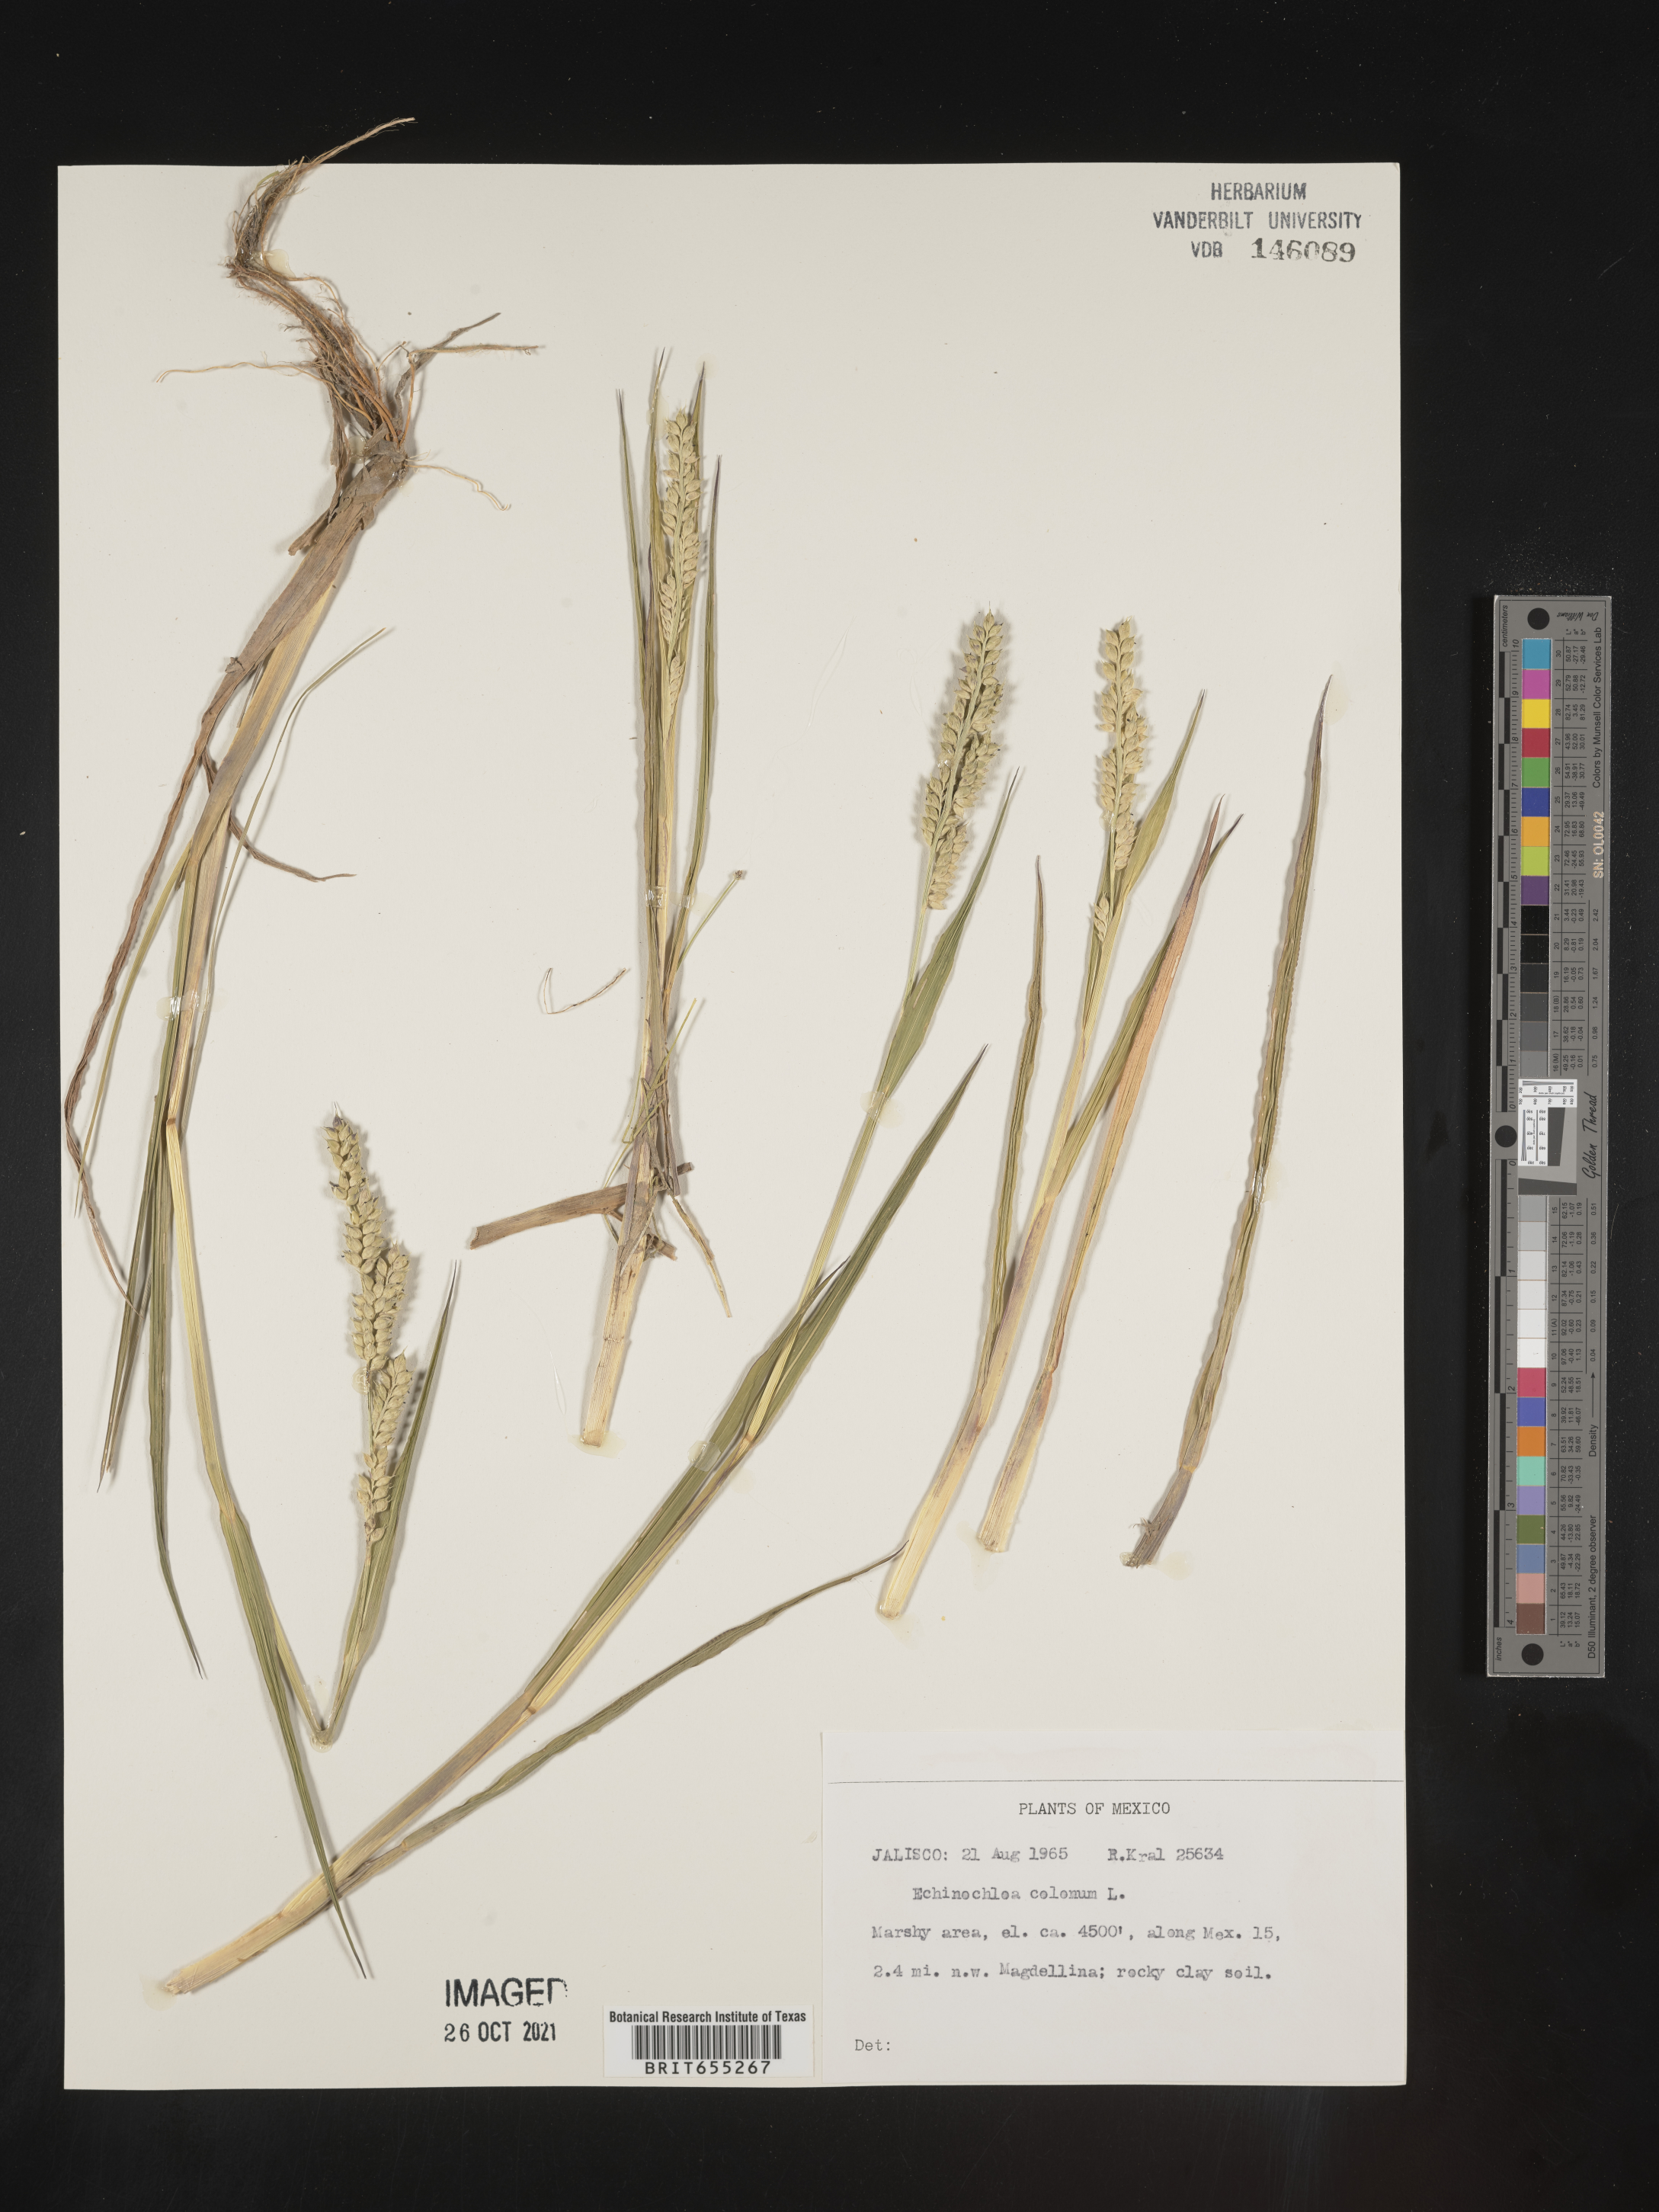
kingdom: Plantae
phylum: Tracheophyta
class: Liliopsida
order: Poales
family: Poaceae
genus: Echinochloa
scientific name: Echinochloa
